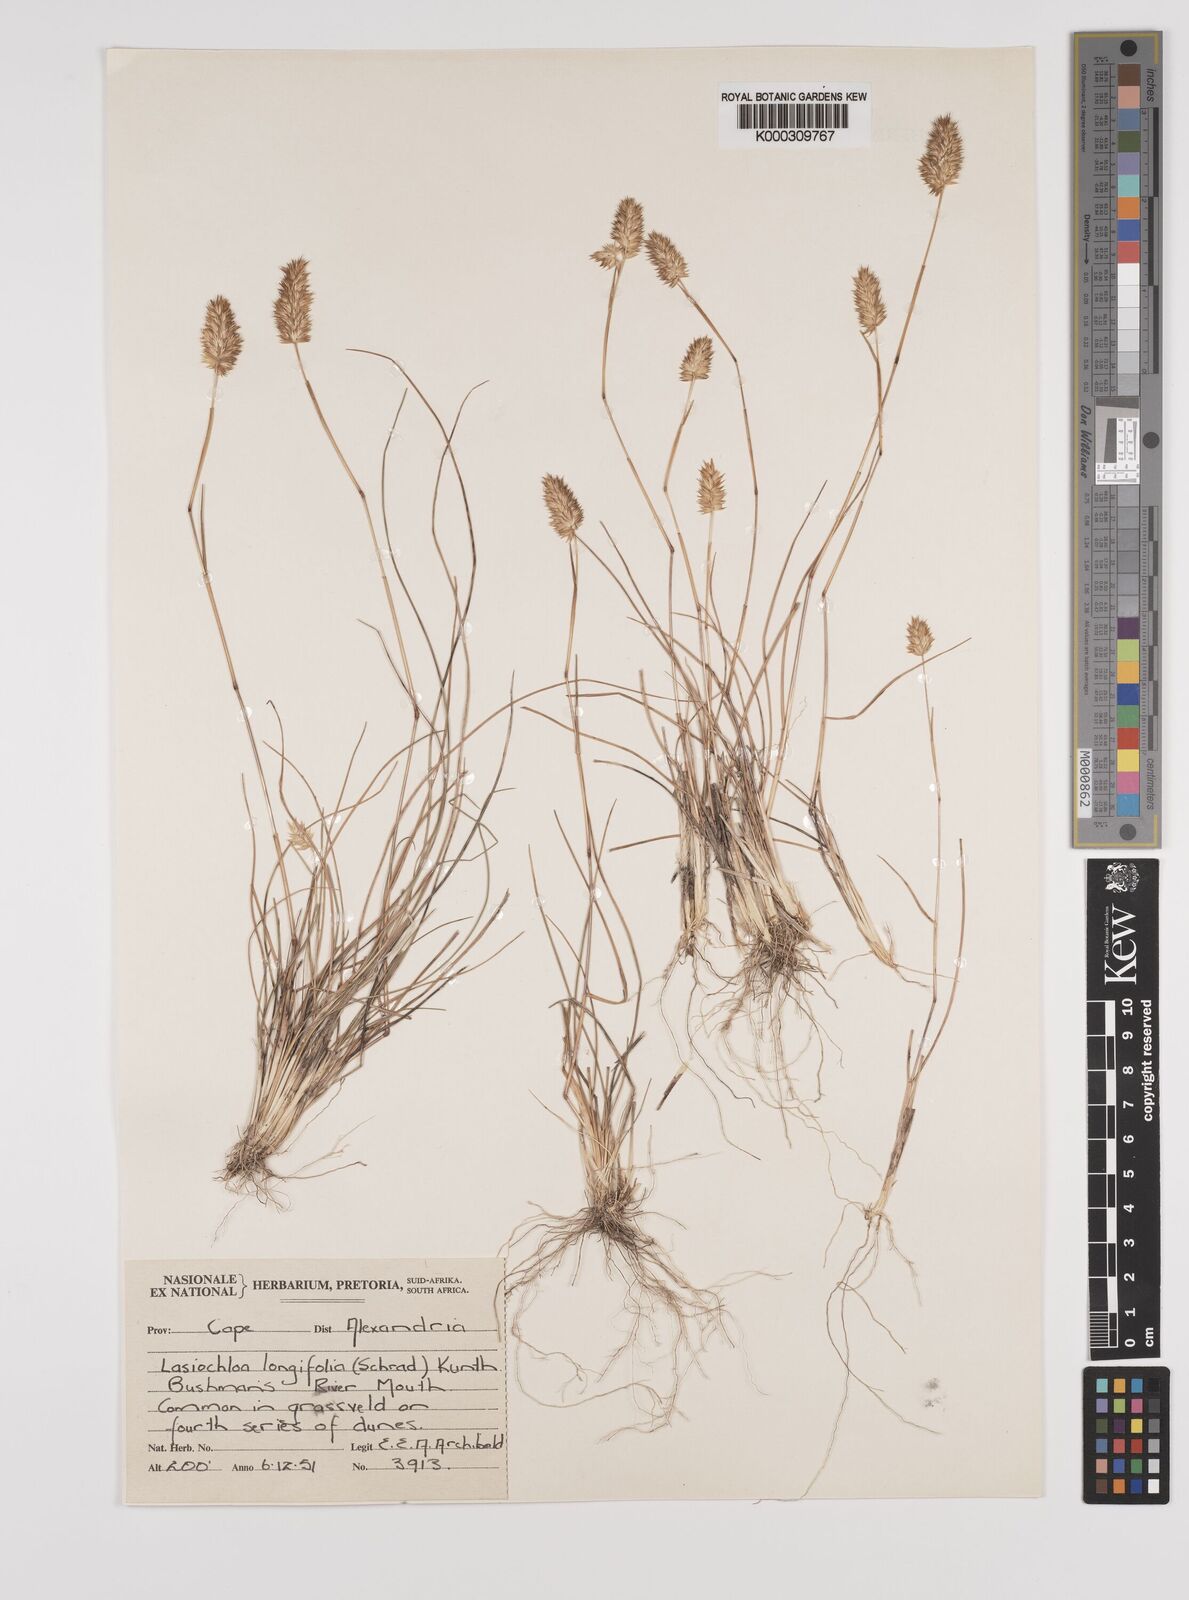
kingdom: Plantae
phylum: Tracheophyta
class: Liliopsida
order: Poales
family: Poaceae
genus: Tribolium
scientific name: Tribolium hispidum
